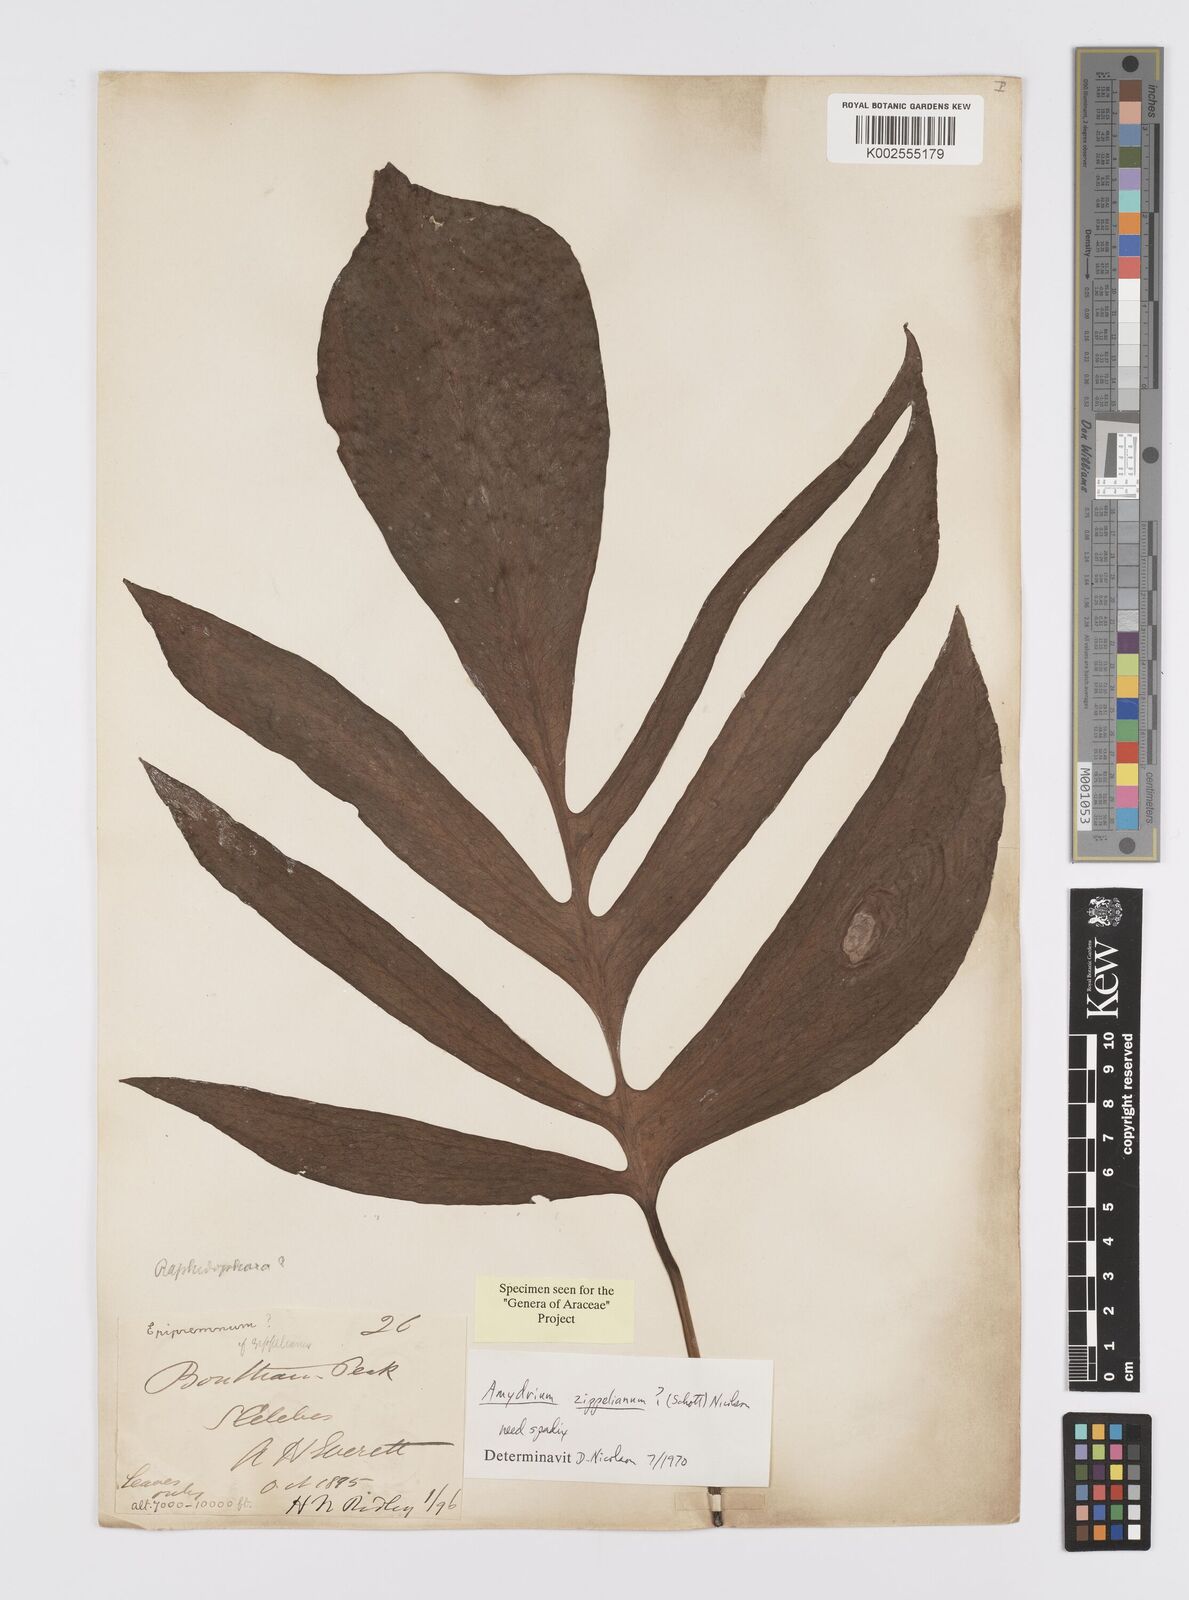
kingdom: Plantae
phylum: Tracheophyta
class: Liliopsida
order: Alismatales
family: Araceae
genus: Amydrium
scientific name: Amydrium zippelianum
